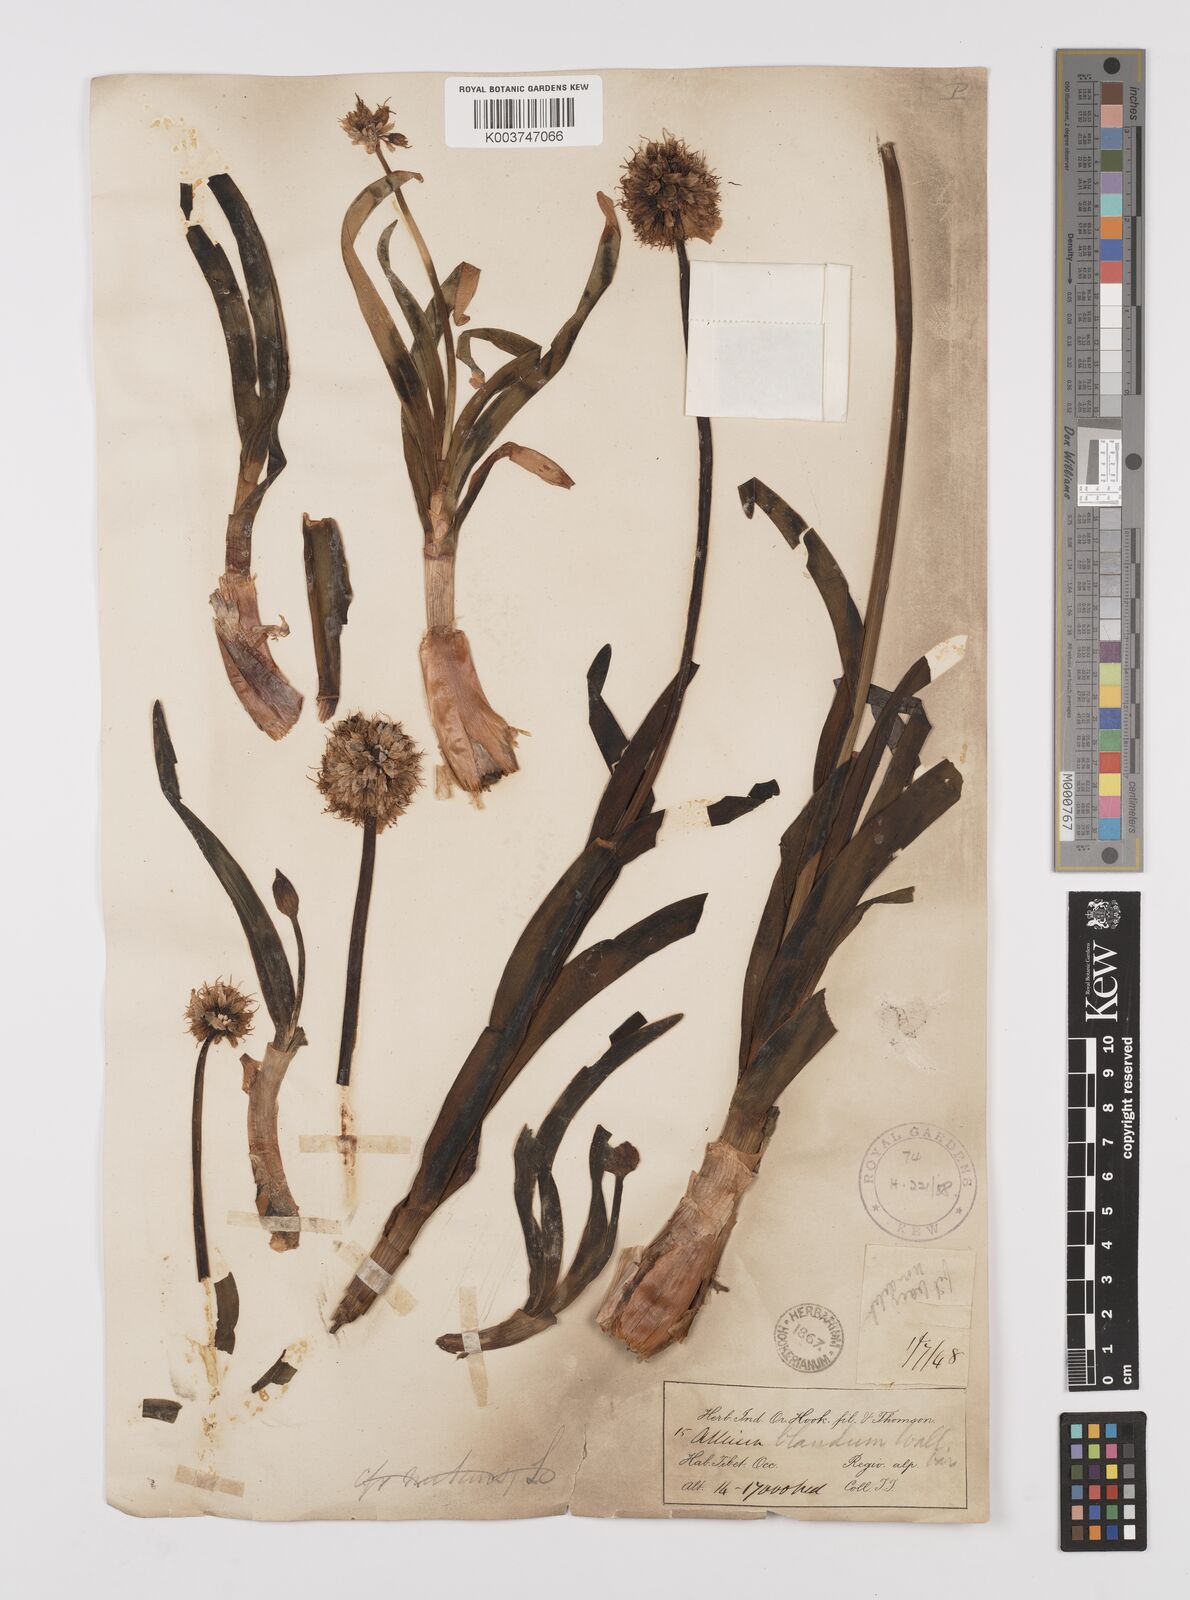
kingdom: Plantae
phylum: Tracheophyta
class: Liliopsida
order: Asparagales
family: Amaryllidaceae
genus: Allium
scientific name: Allium carolinianum
